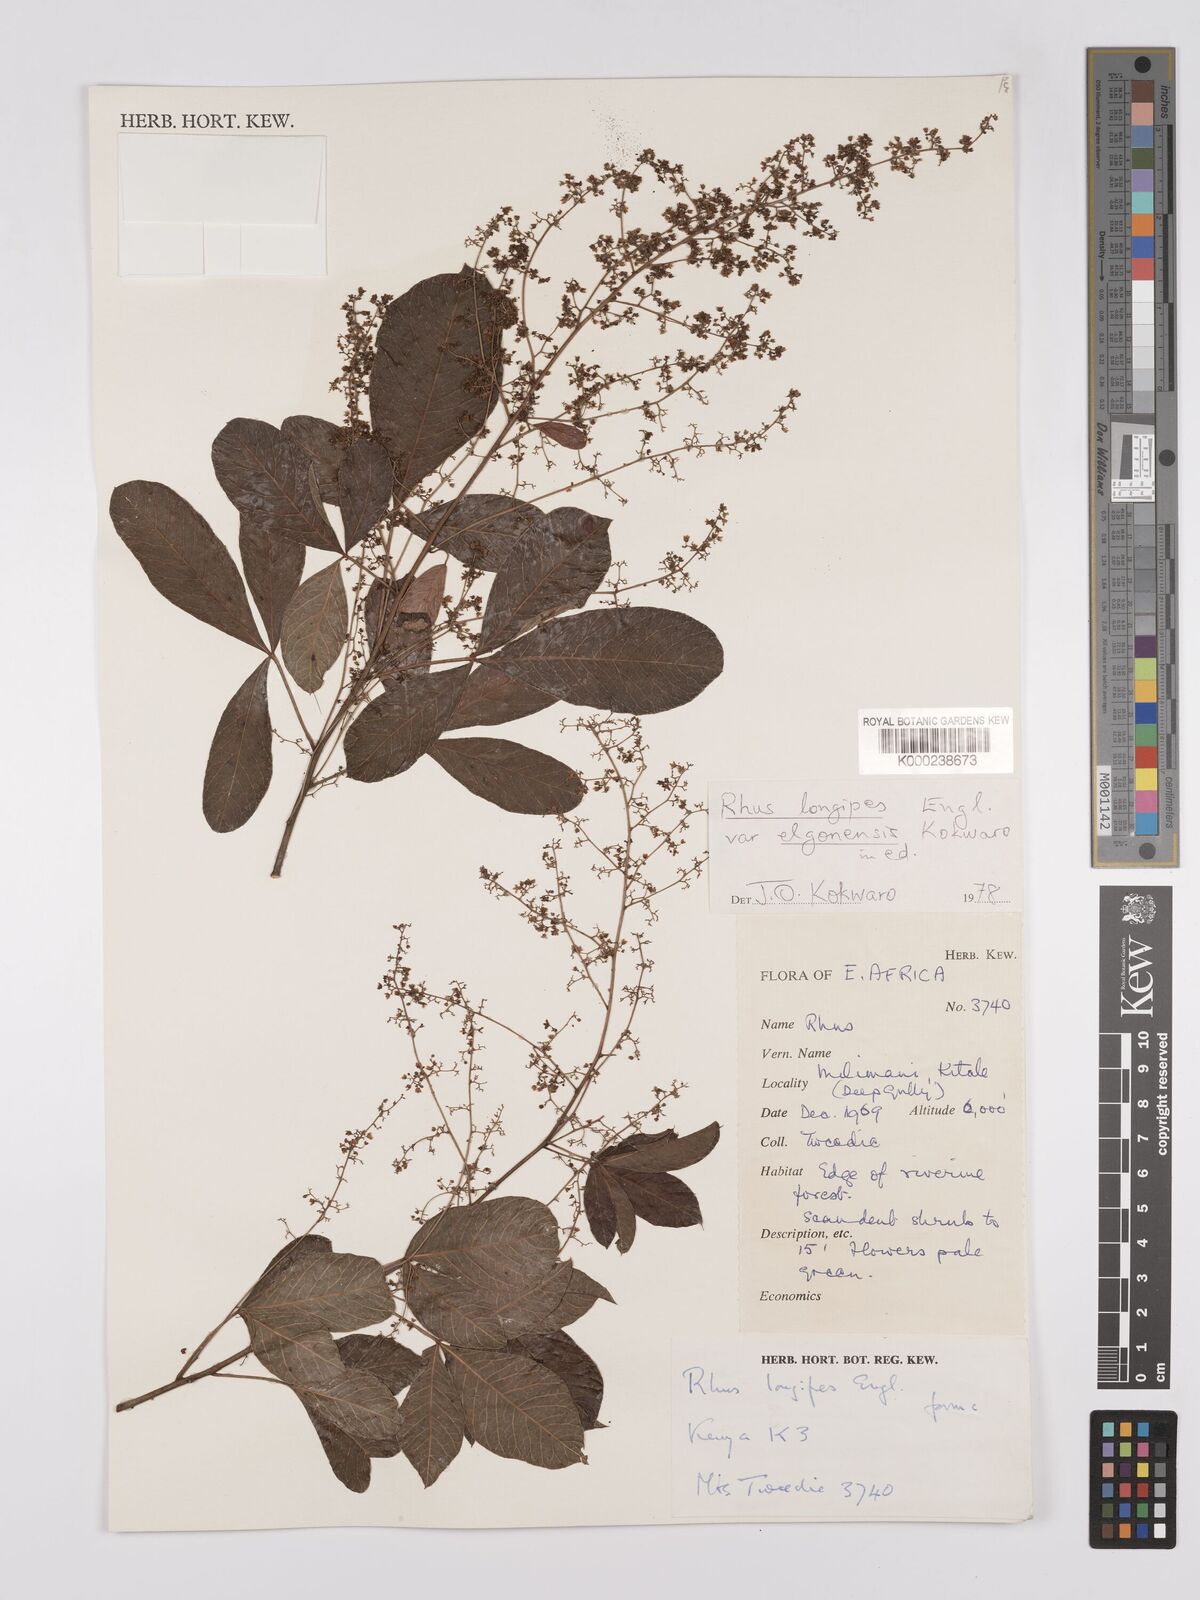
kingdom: Plantae
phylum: Tracheophyta
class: Magnoliopsida
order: Sapindales
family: Anacardiaceae
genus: Searsia
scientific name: Searsia longipes
